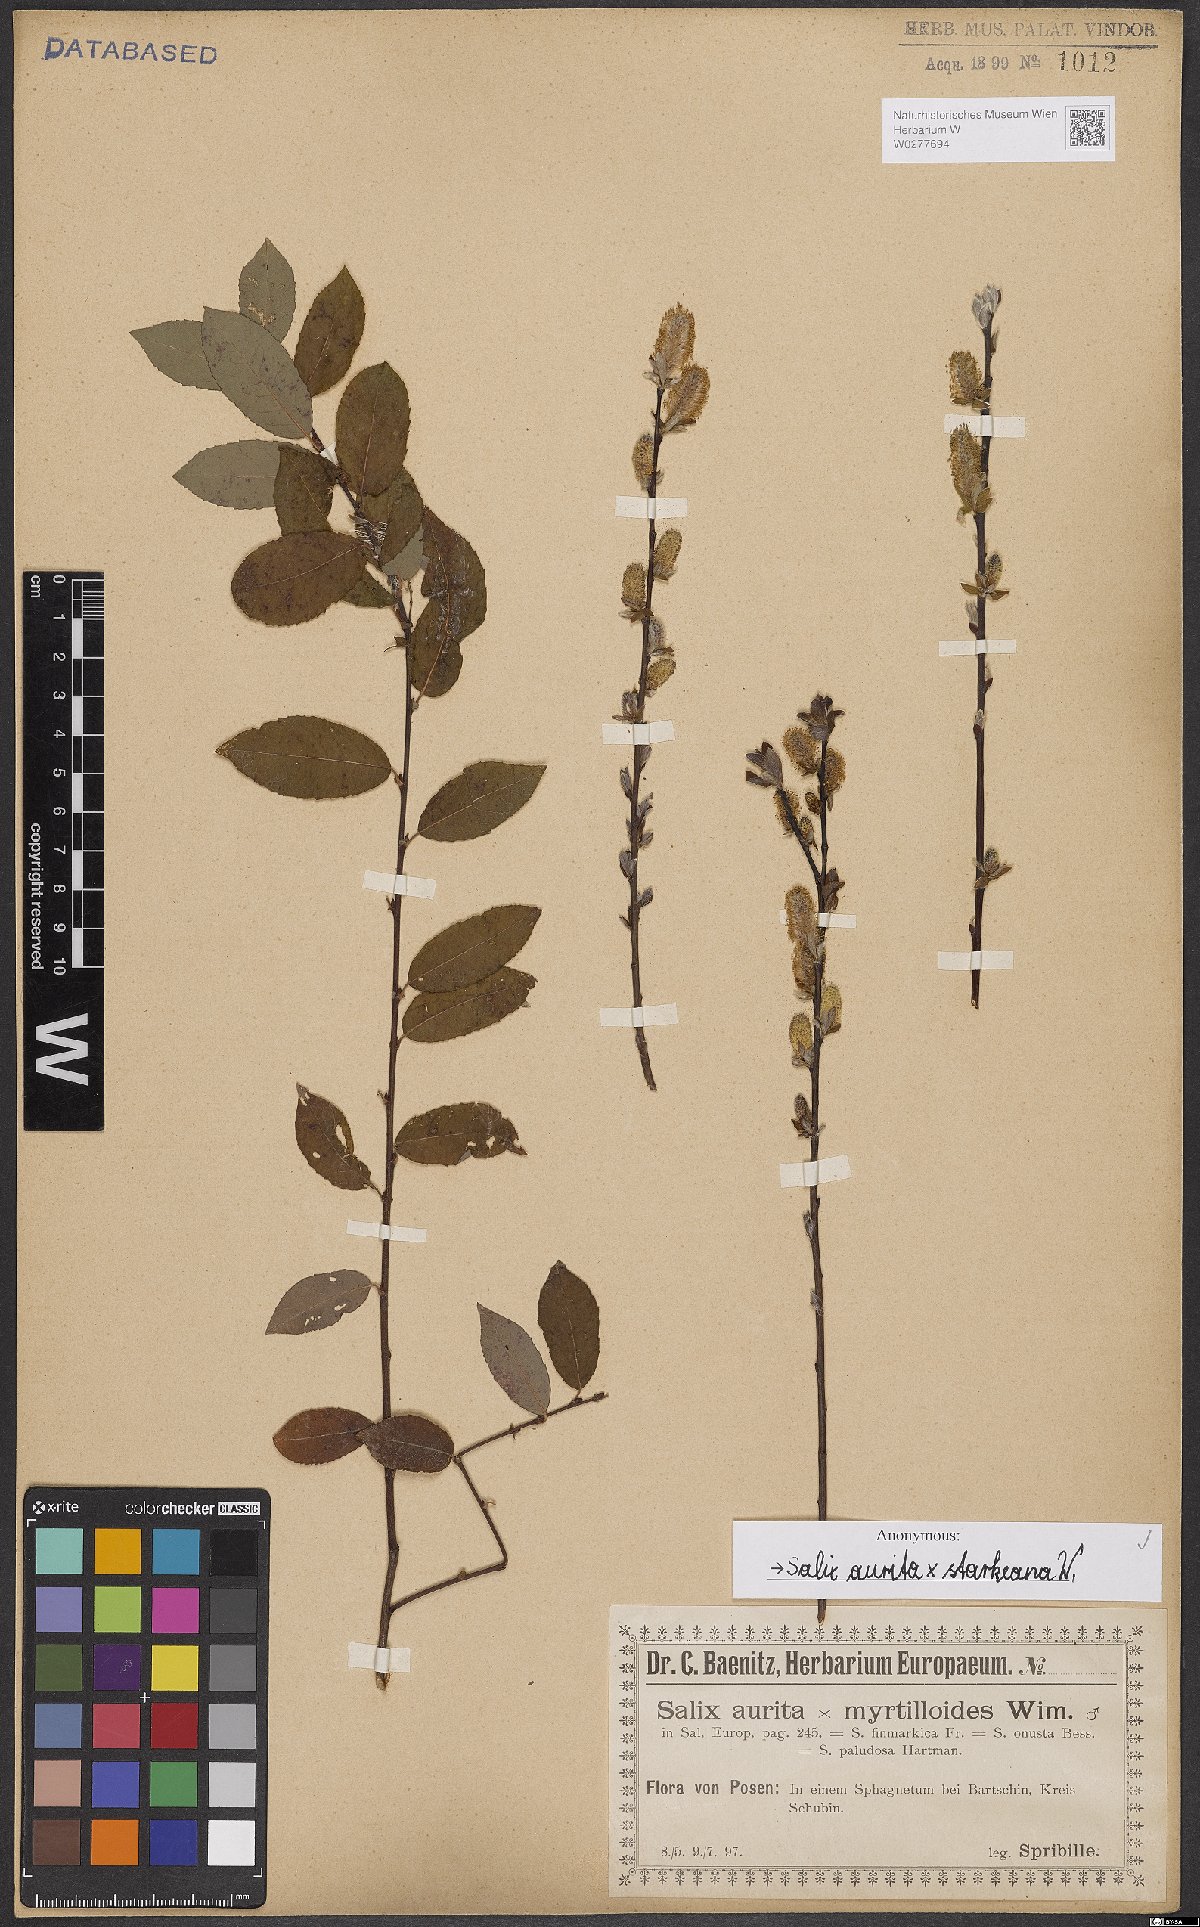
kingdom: Plantae
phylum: Tracheophyta
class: Magnoliopsida
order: Malpighiales
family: Salicaceae
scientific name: Salicaceae
